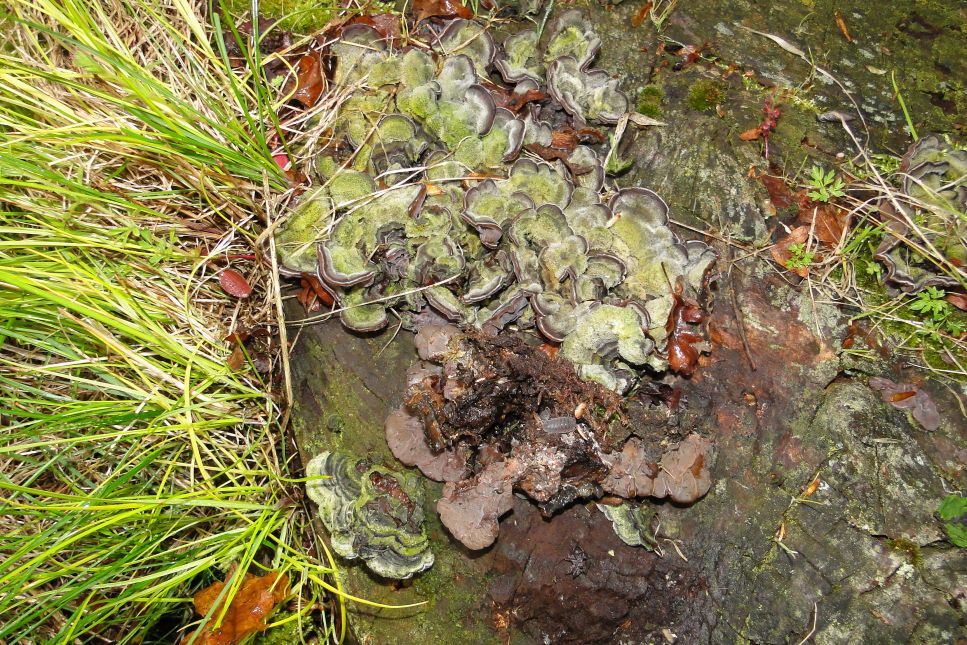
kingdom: Fungi
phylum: Basidiomycota
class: Agaricomycetes
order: Auriculariales
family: Auriculariaceae
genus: Auricularia
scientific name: Auricularia mesenterica
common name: håret judasøre
